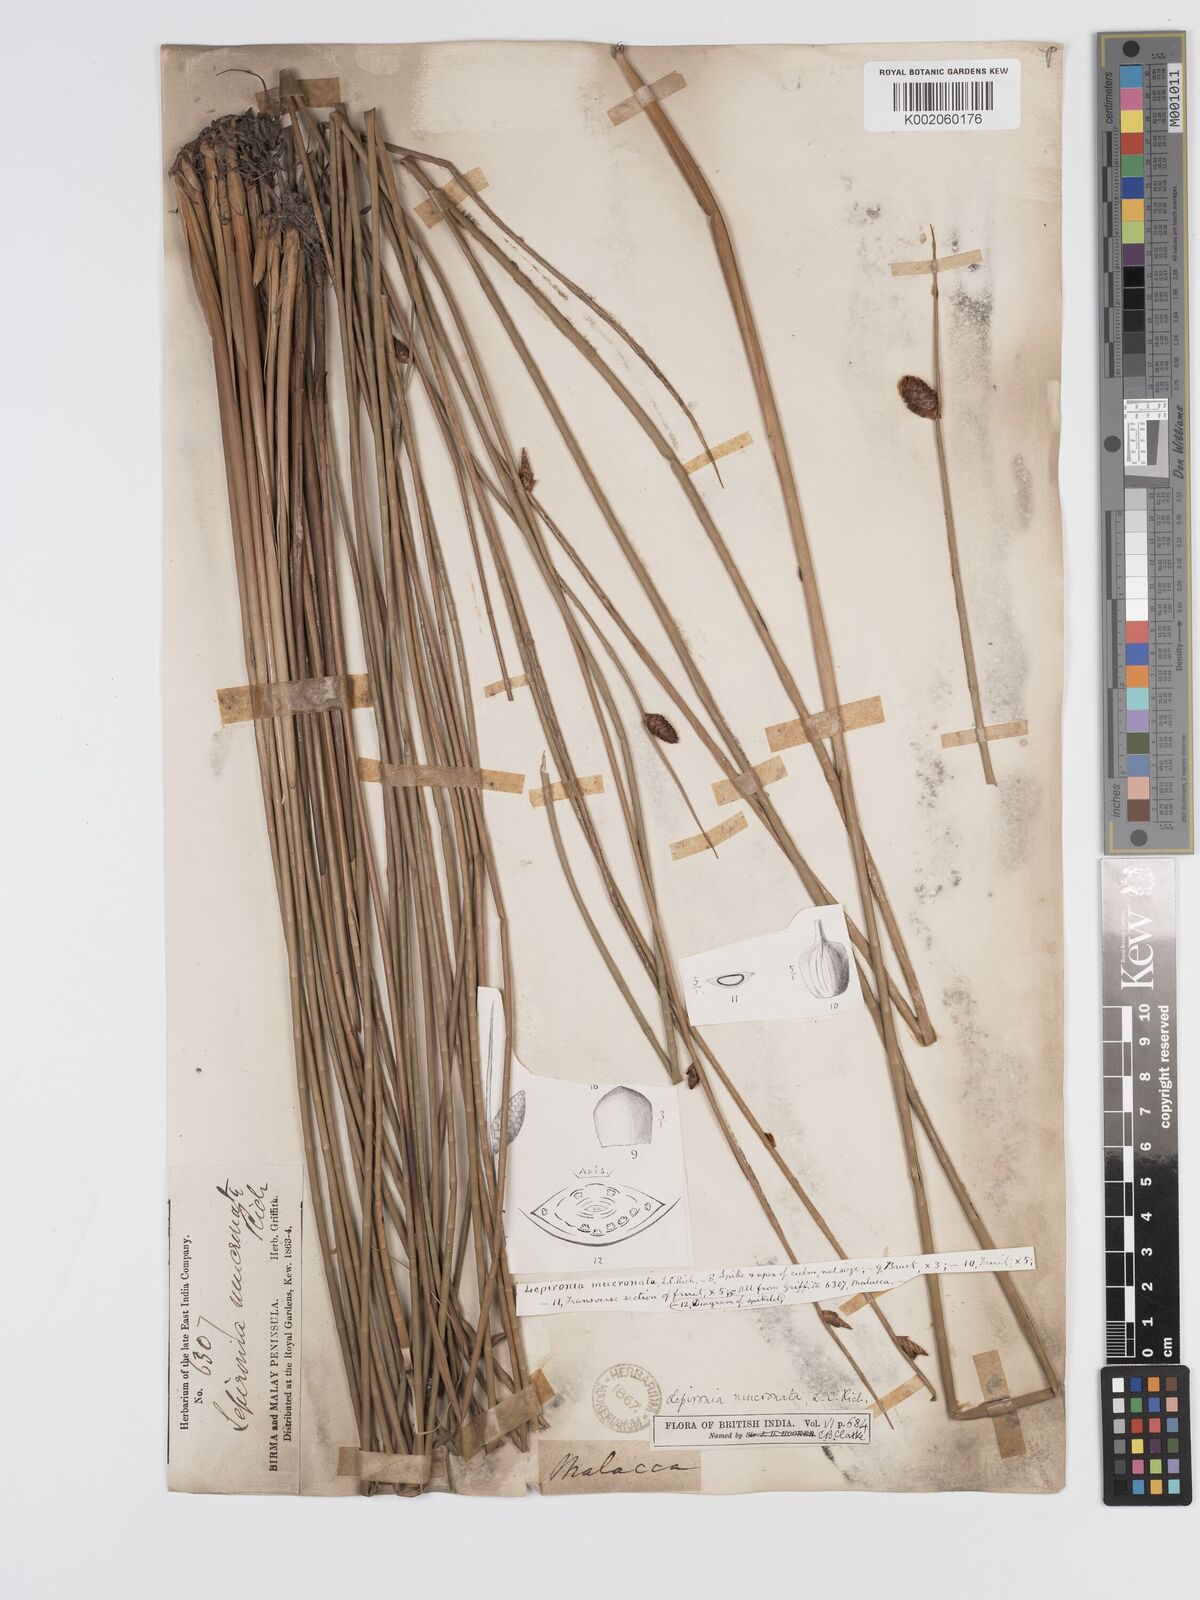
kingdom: Plantae
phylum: Tracheophyta
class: Liliopsida
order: Poales
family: Cyperaceae
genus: Lepironia
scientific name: Lepironia articulata
